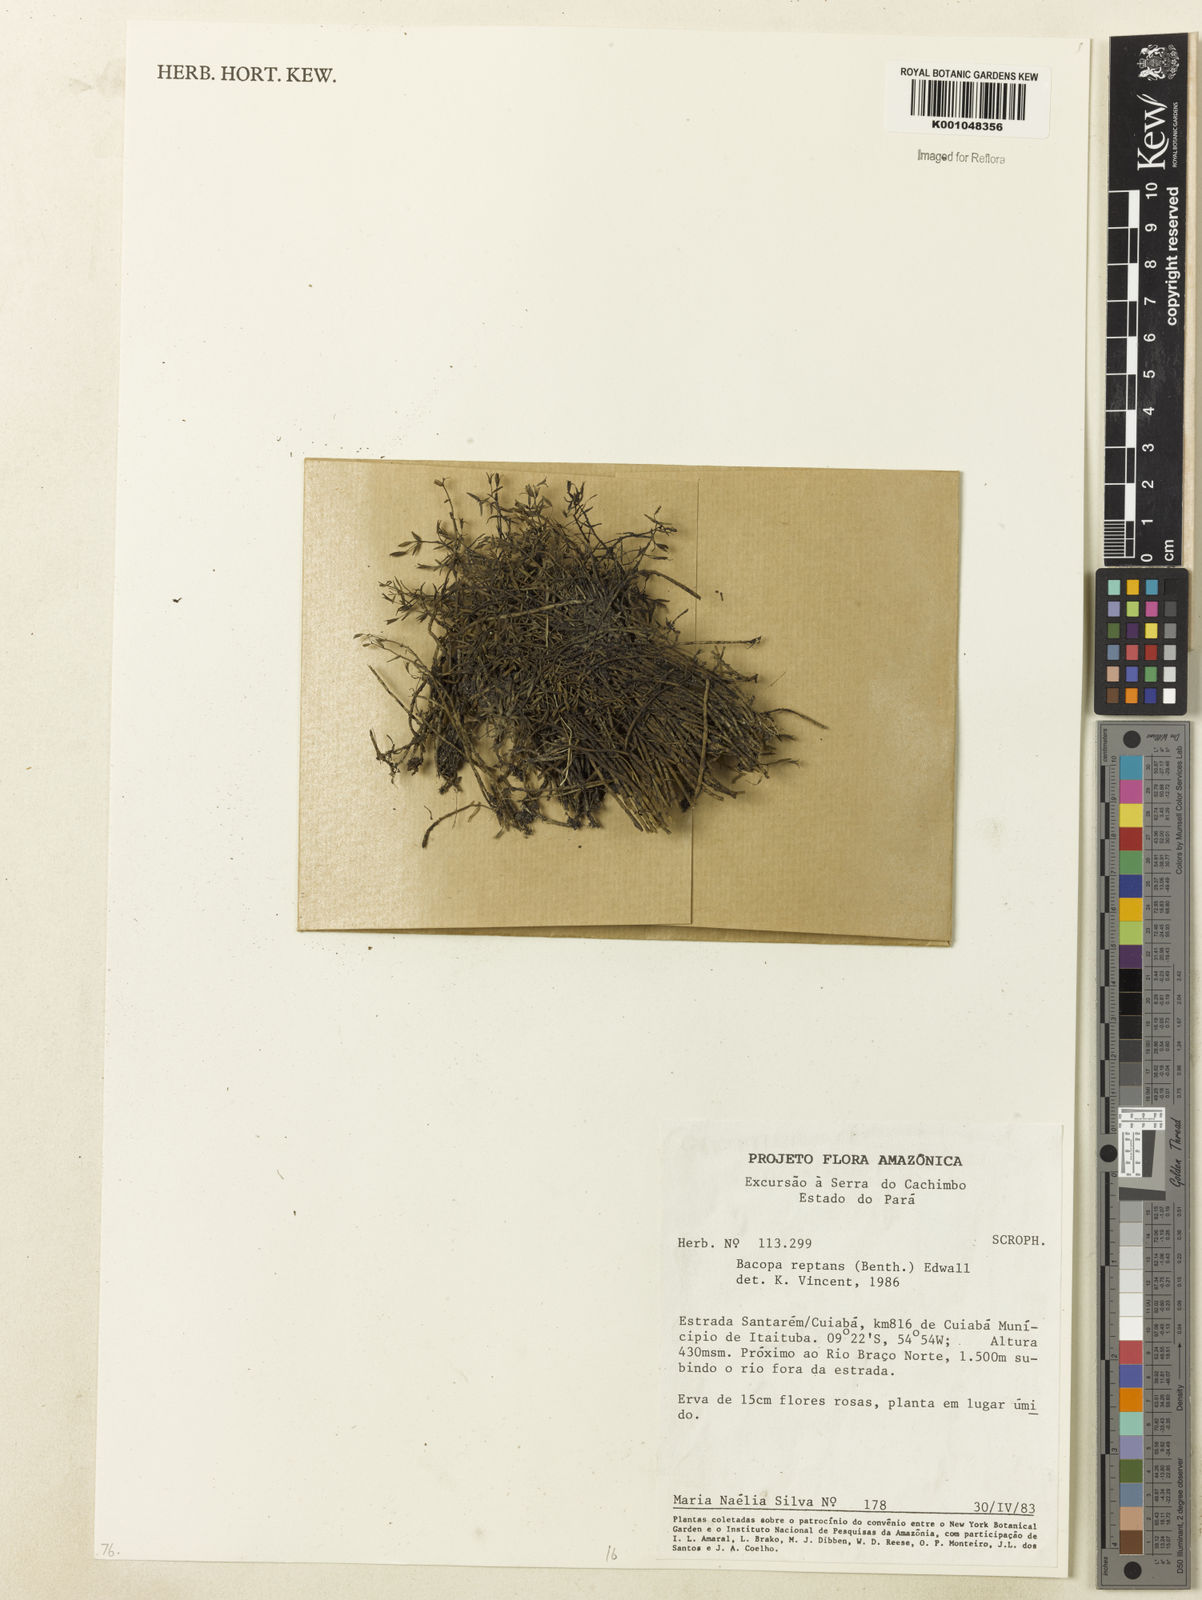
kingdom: Plantae
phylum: Tracheophyta
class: Magnoliopsida
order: Lamiales
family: Plantaginaceae
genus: Bacopa
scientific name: Bacopa
